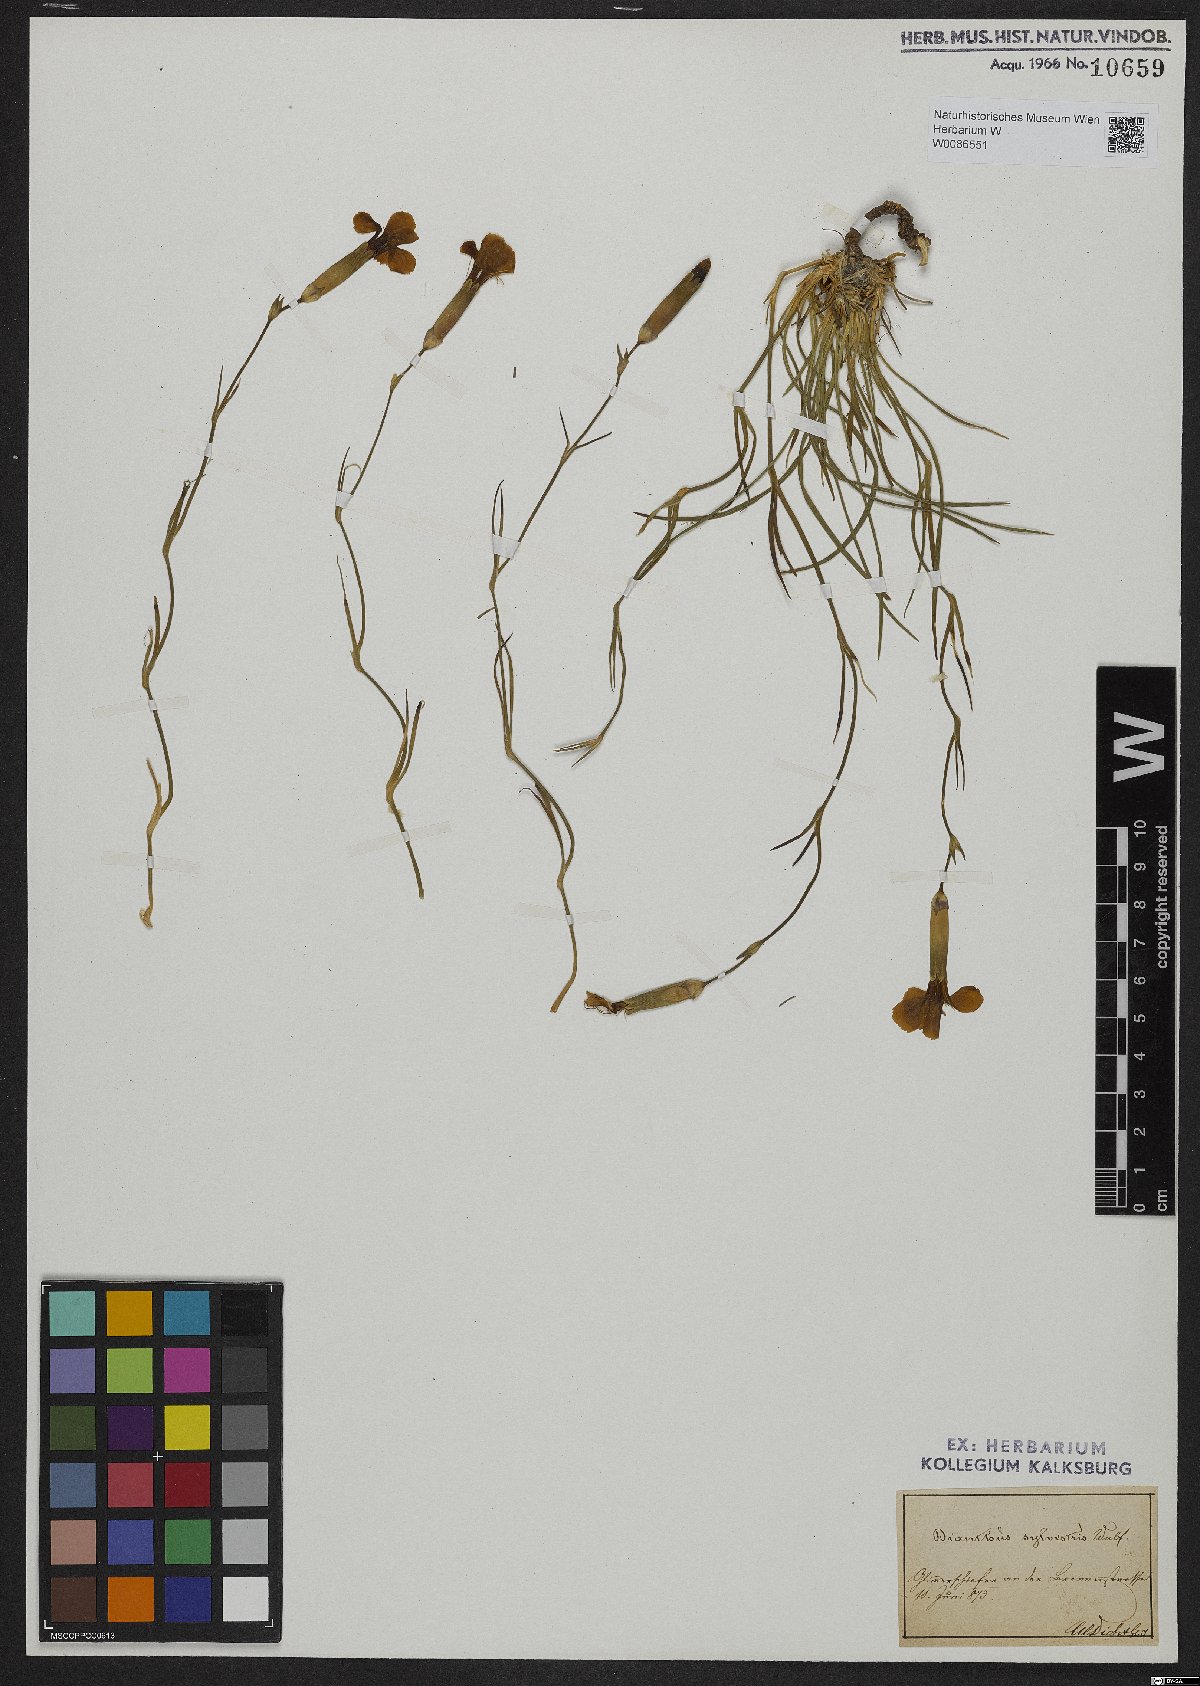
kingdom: Plantae
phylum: Tracheophyta
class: Magnoliopsida
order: Caryophyllales
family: Caryophyllaceae
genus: Dianthus
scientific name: Dianthus sylvestris
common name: Wood pink
